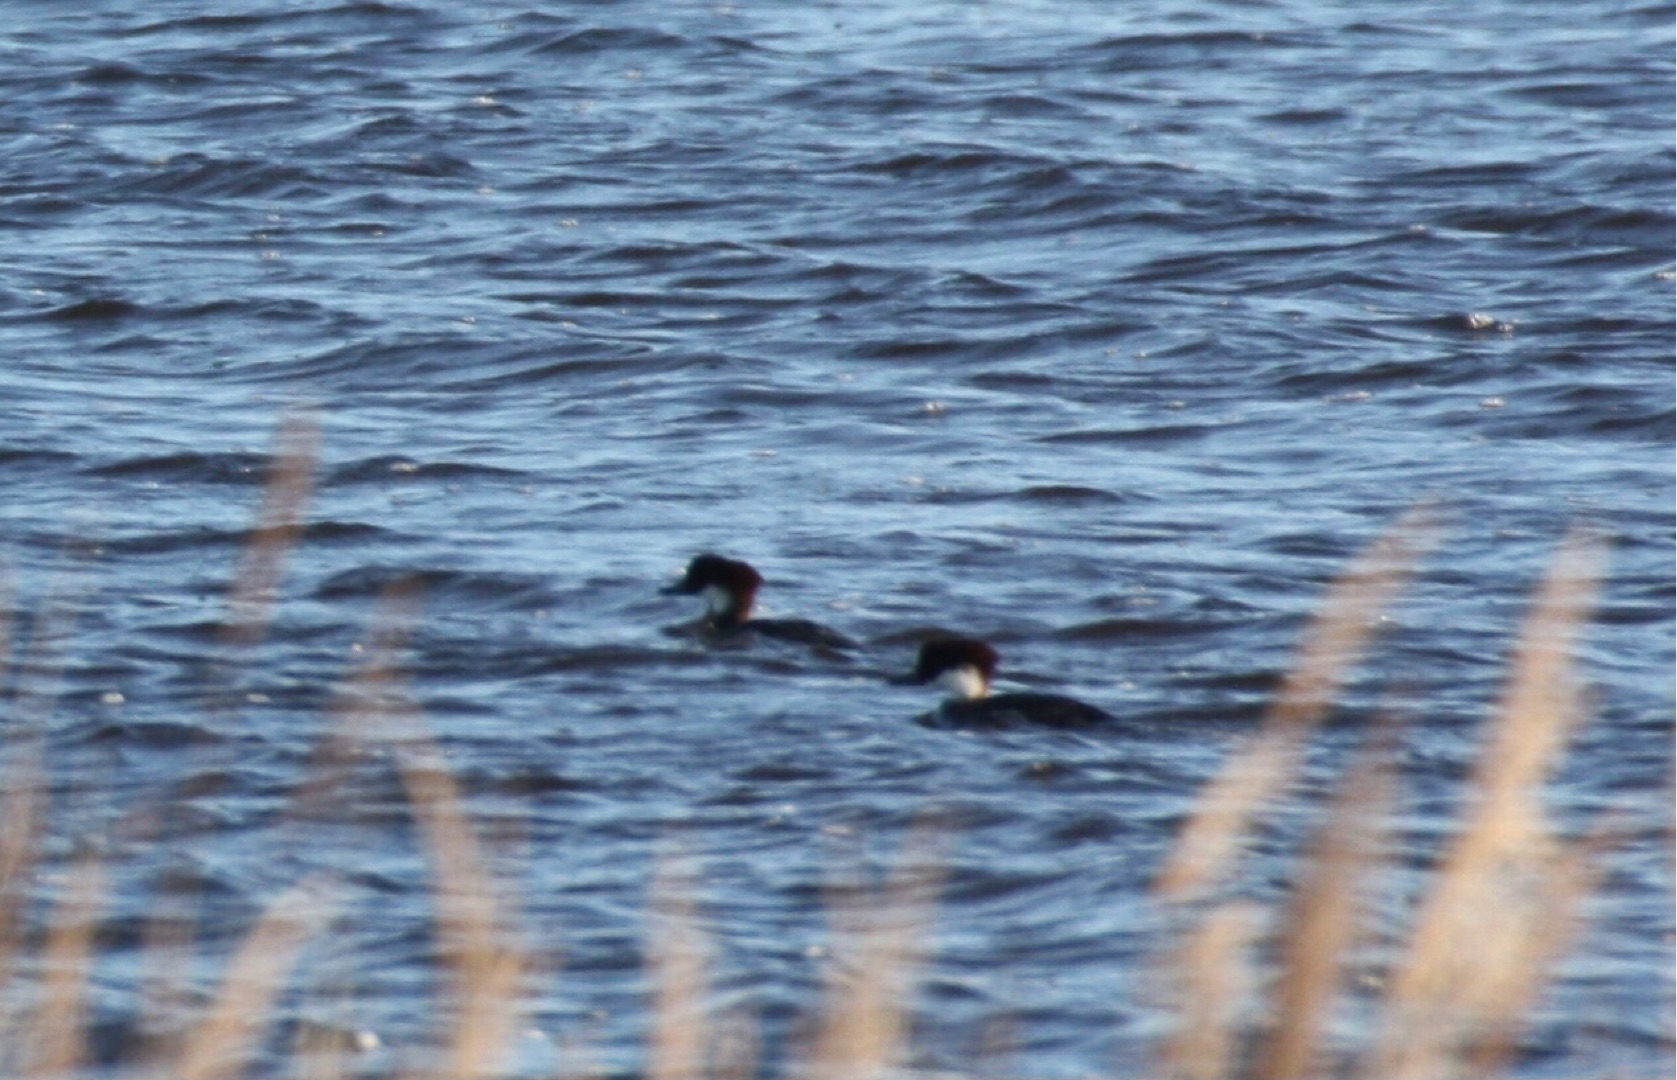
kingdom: Animalia
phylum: Chordata
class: Aves
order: Anseriformes
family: Anatidae
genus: Mergellus
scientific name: Mergellus albellus
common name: Lille skallesluger
